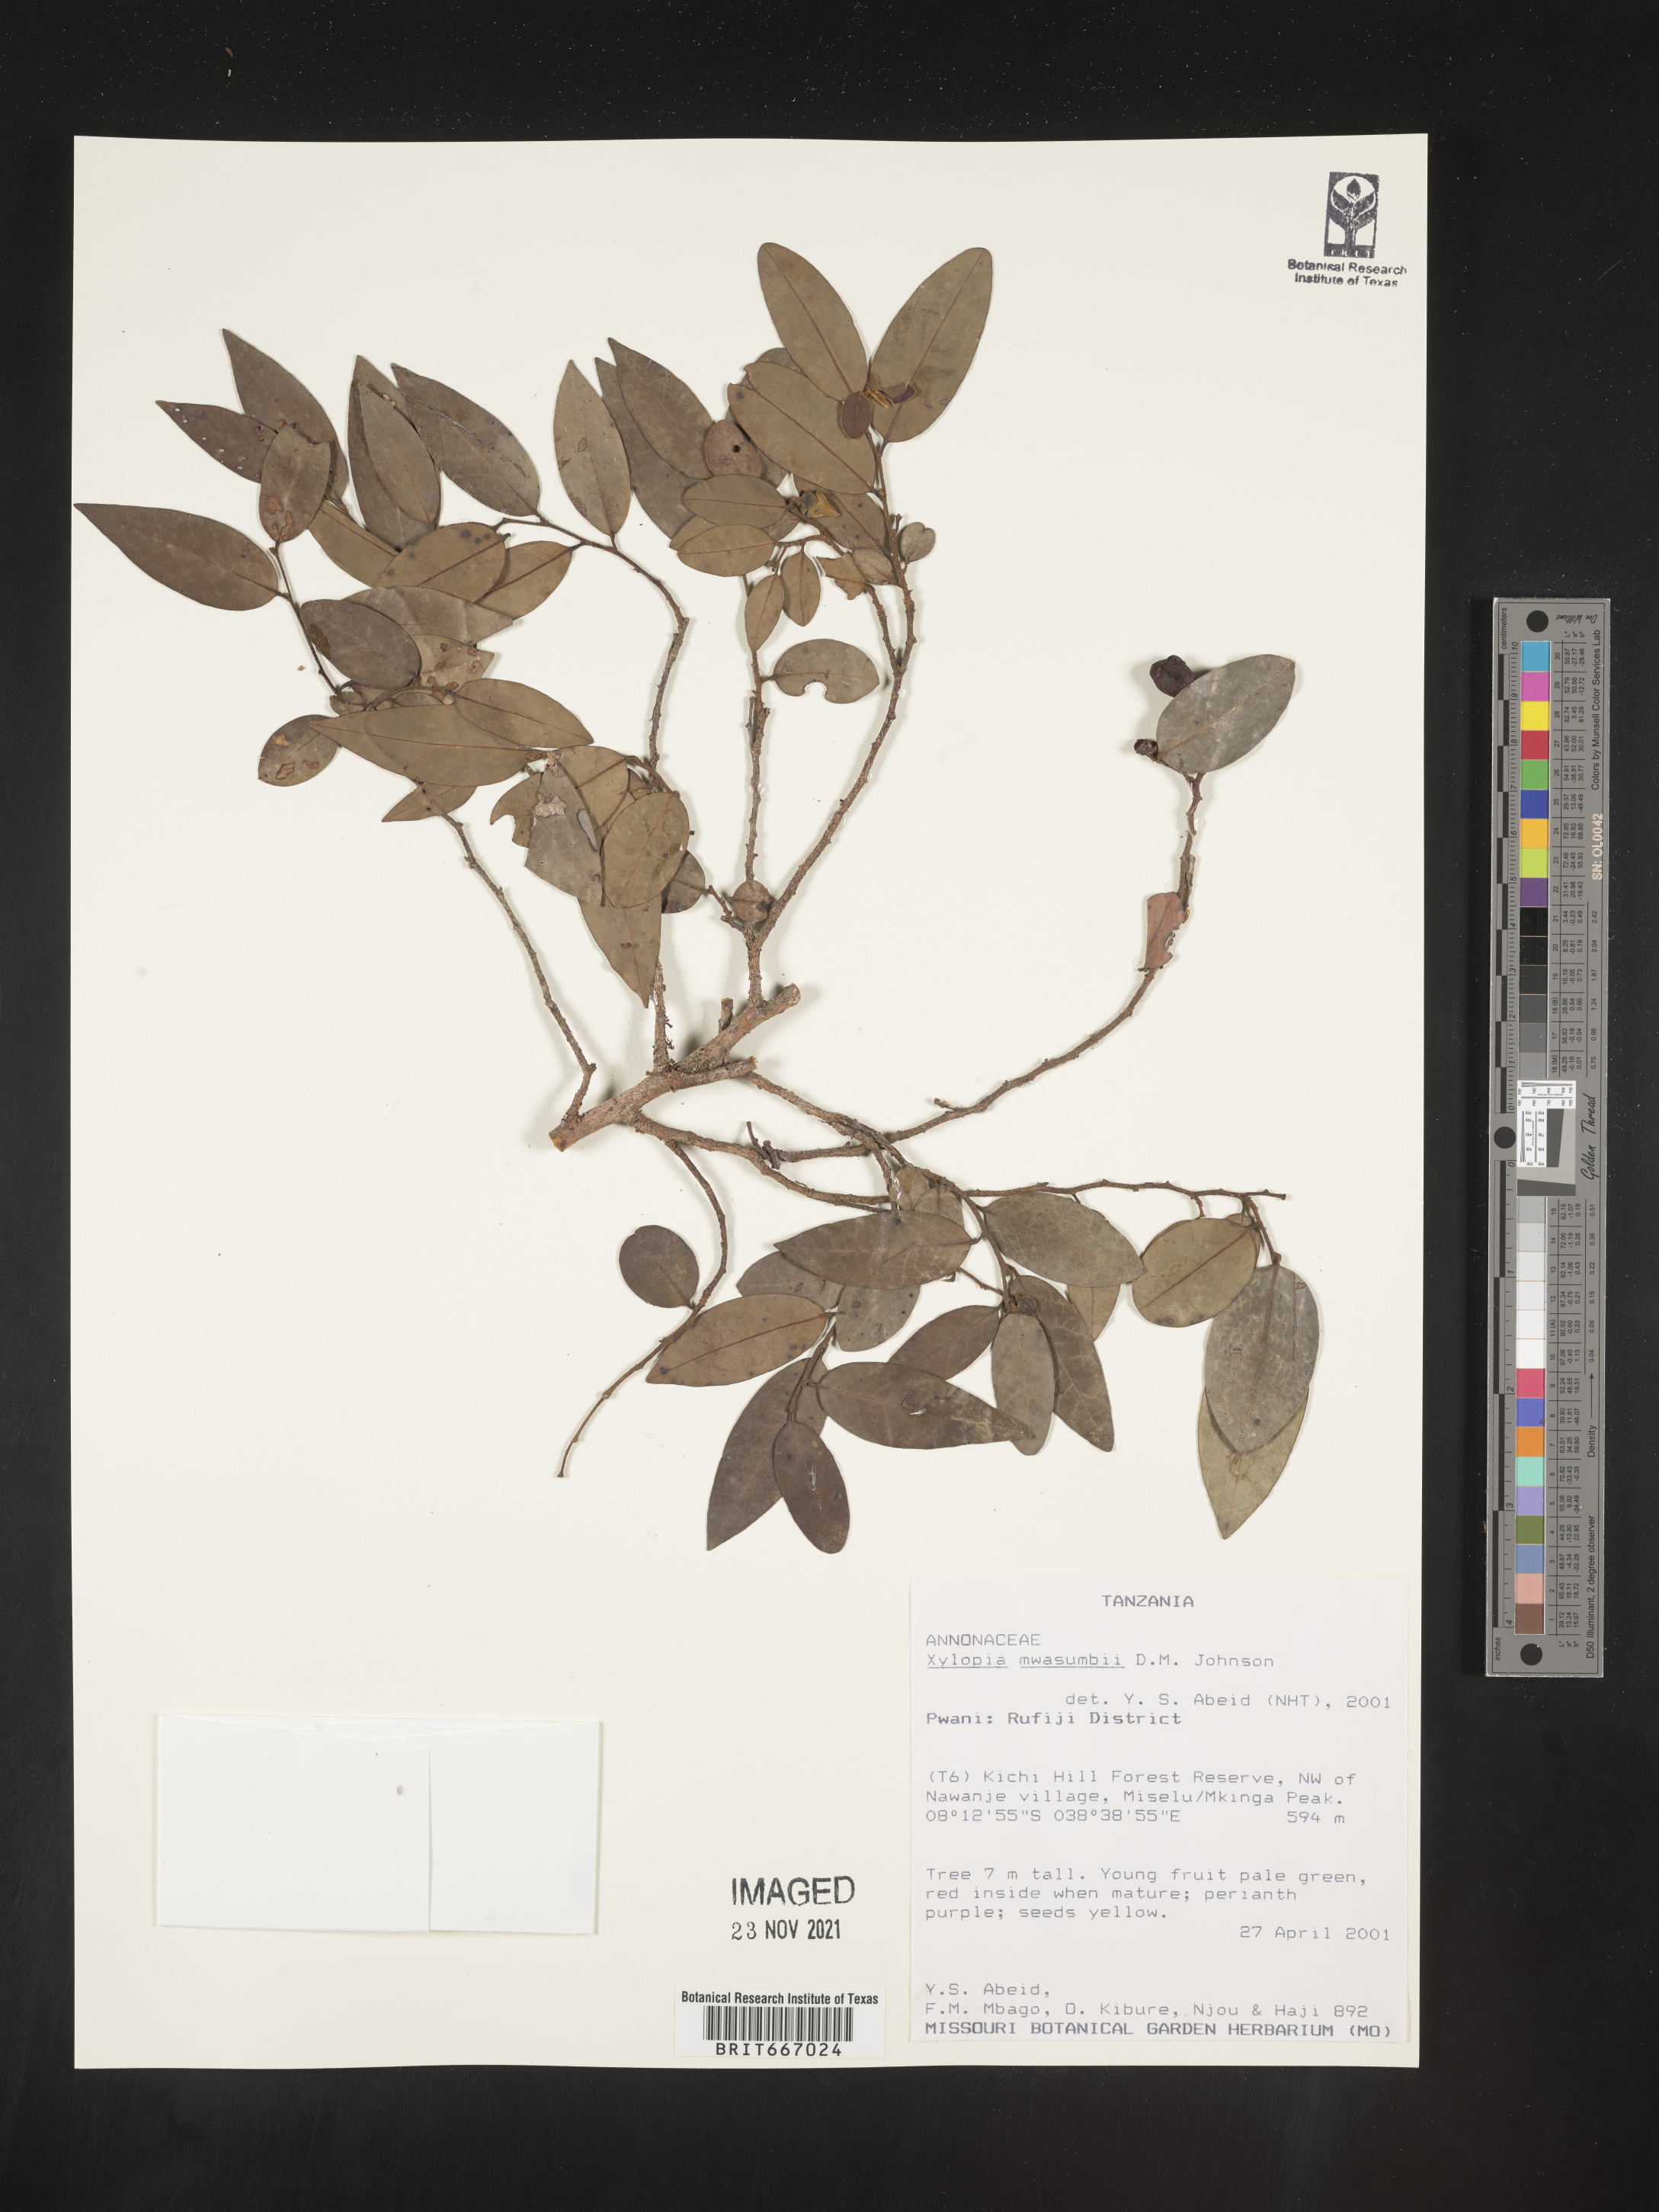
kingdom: Plantae
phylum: Tracheophyta
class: Magnoliopsida
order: Magnoliales
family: Annonaceae
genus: Xylopia
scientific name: Xylopia
